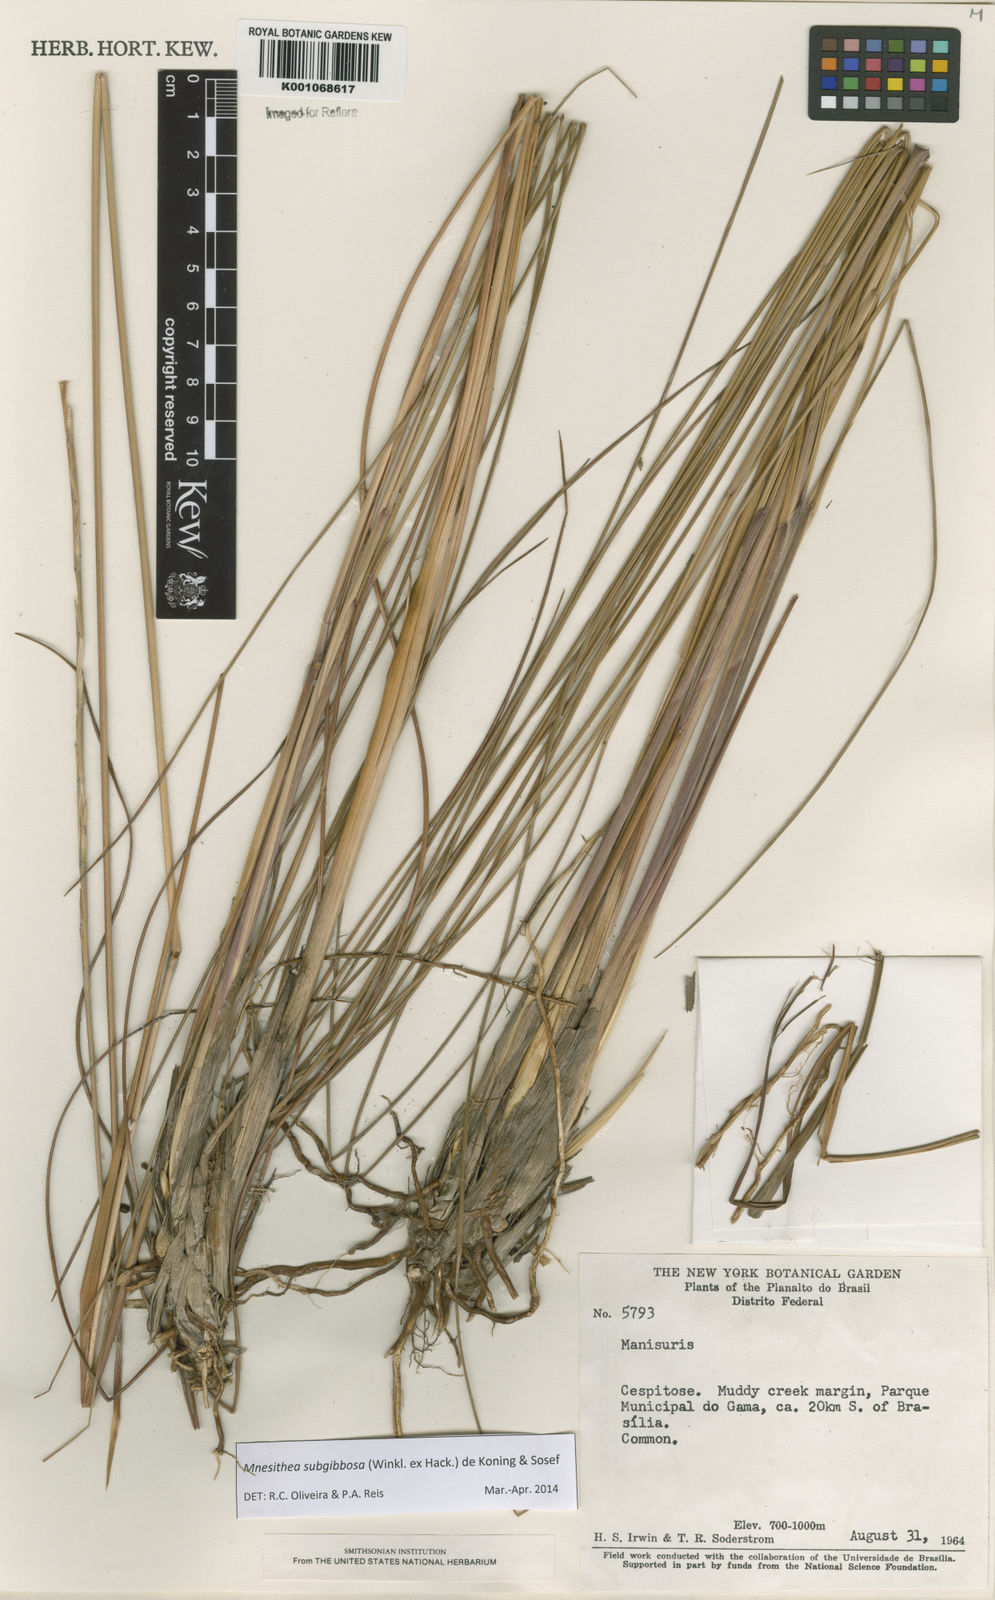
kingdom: Plantae
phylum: Tracheophyta
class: Liliopsida
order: Poales
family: Poaceae
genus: Rhytachne
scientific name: Rhytachne subgibbosa
